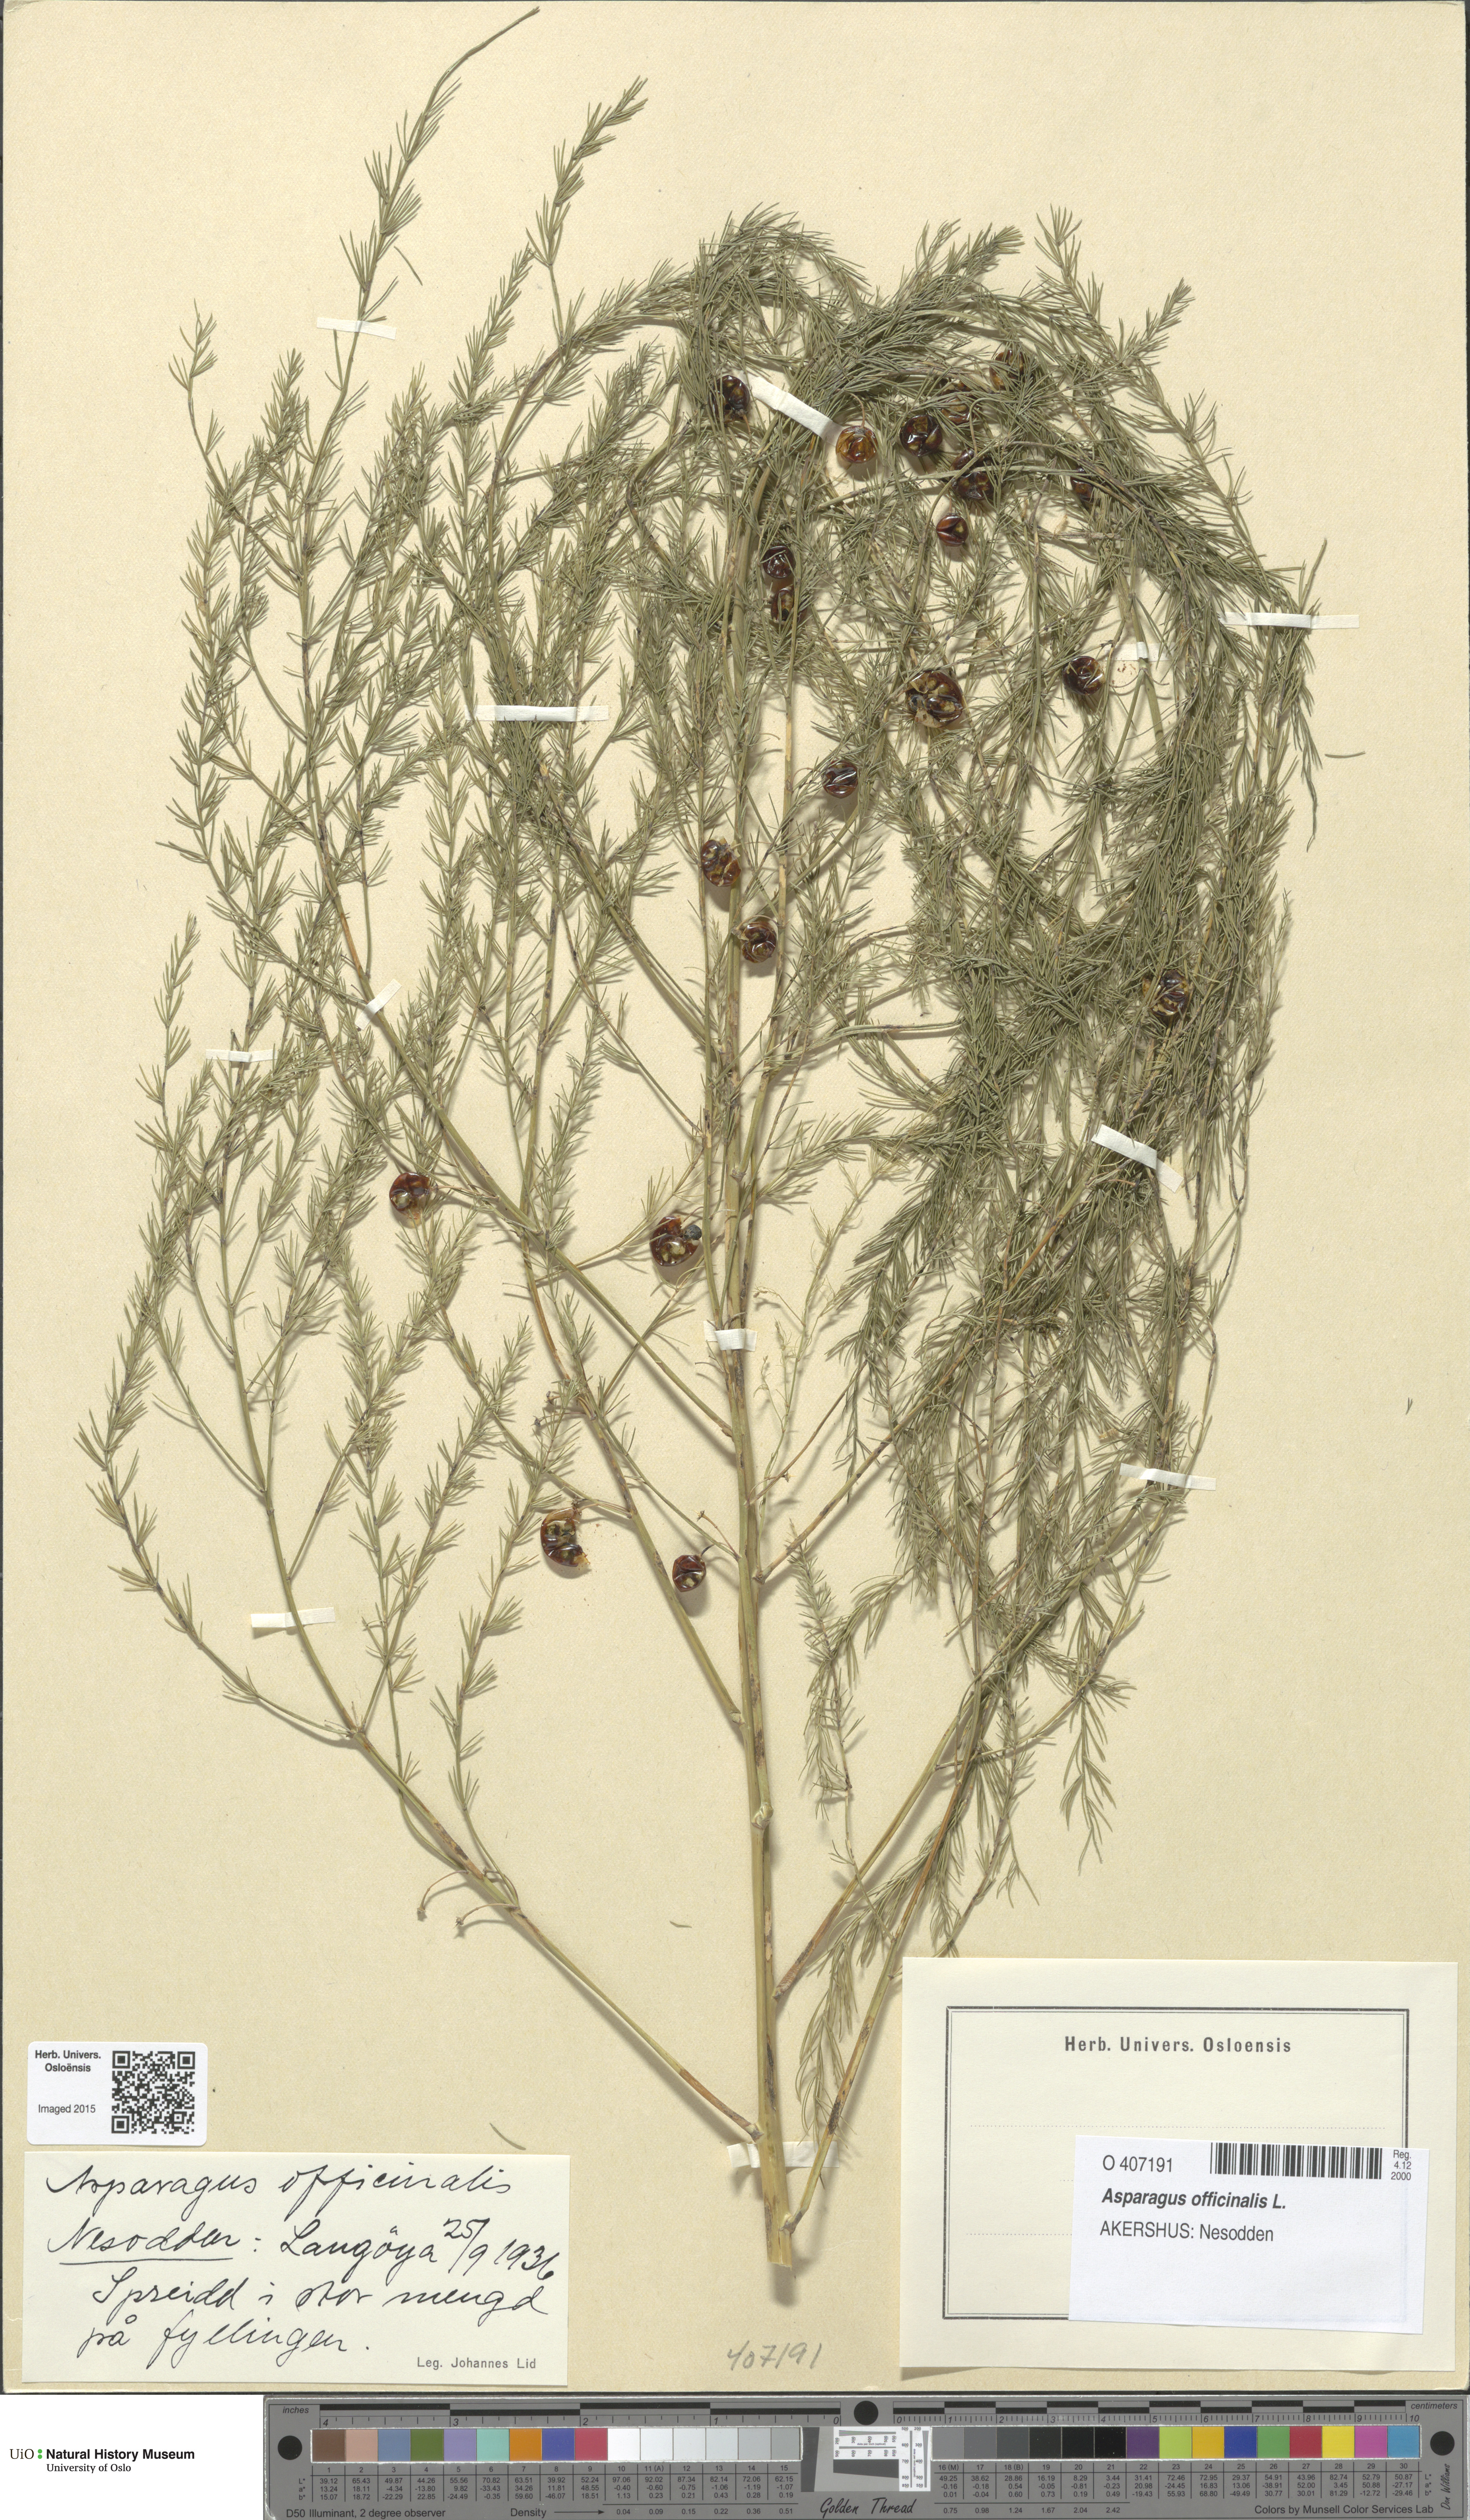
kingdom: Plantae
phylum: Tracheophyta
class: Liliopsida
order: Asparagales
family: Asparagaceae
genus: Asparagus
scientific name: Asparagus officinalis
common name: Garden asparagus
